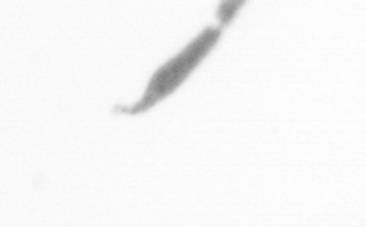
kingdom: Chromista
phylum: Ochrophyta
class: Bacillariophyceae
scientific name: Bacillariophyceae
